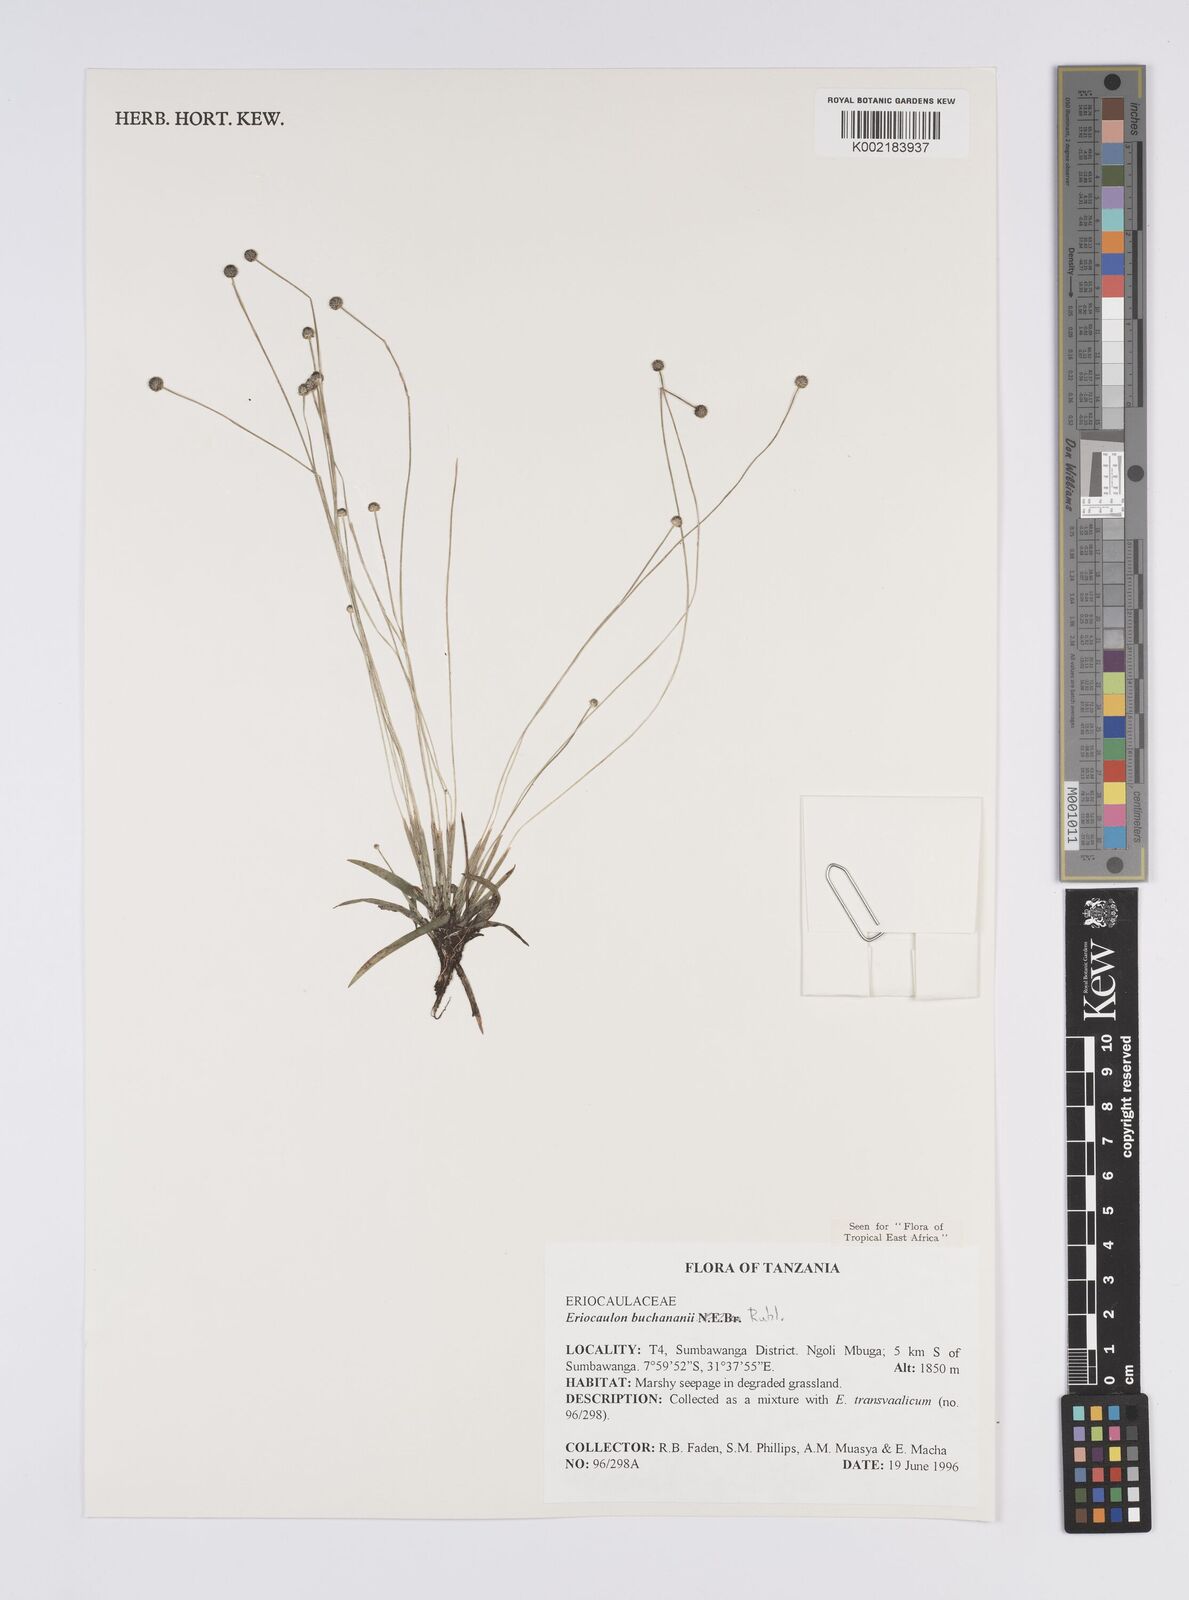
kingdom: Plantae
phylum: Tracheophyta
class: Liliopsida
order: Poales
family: Eriocaulaceae
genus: Eriocaulon
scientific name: Eriocaulon buchananii
